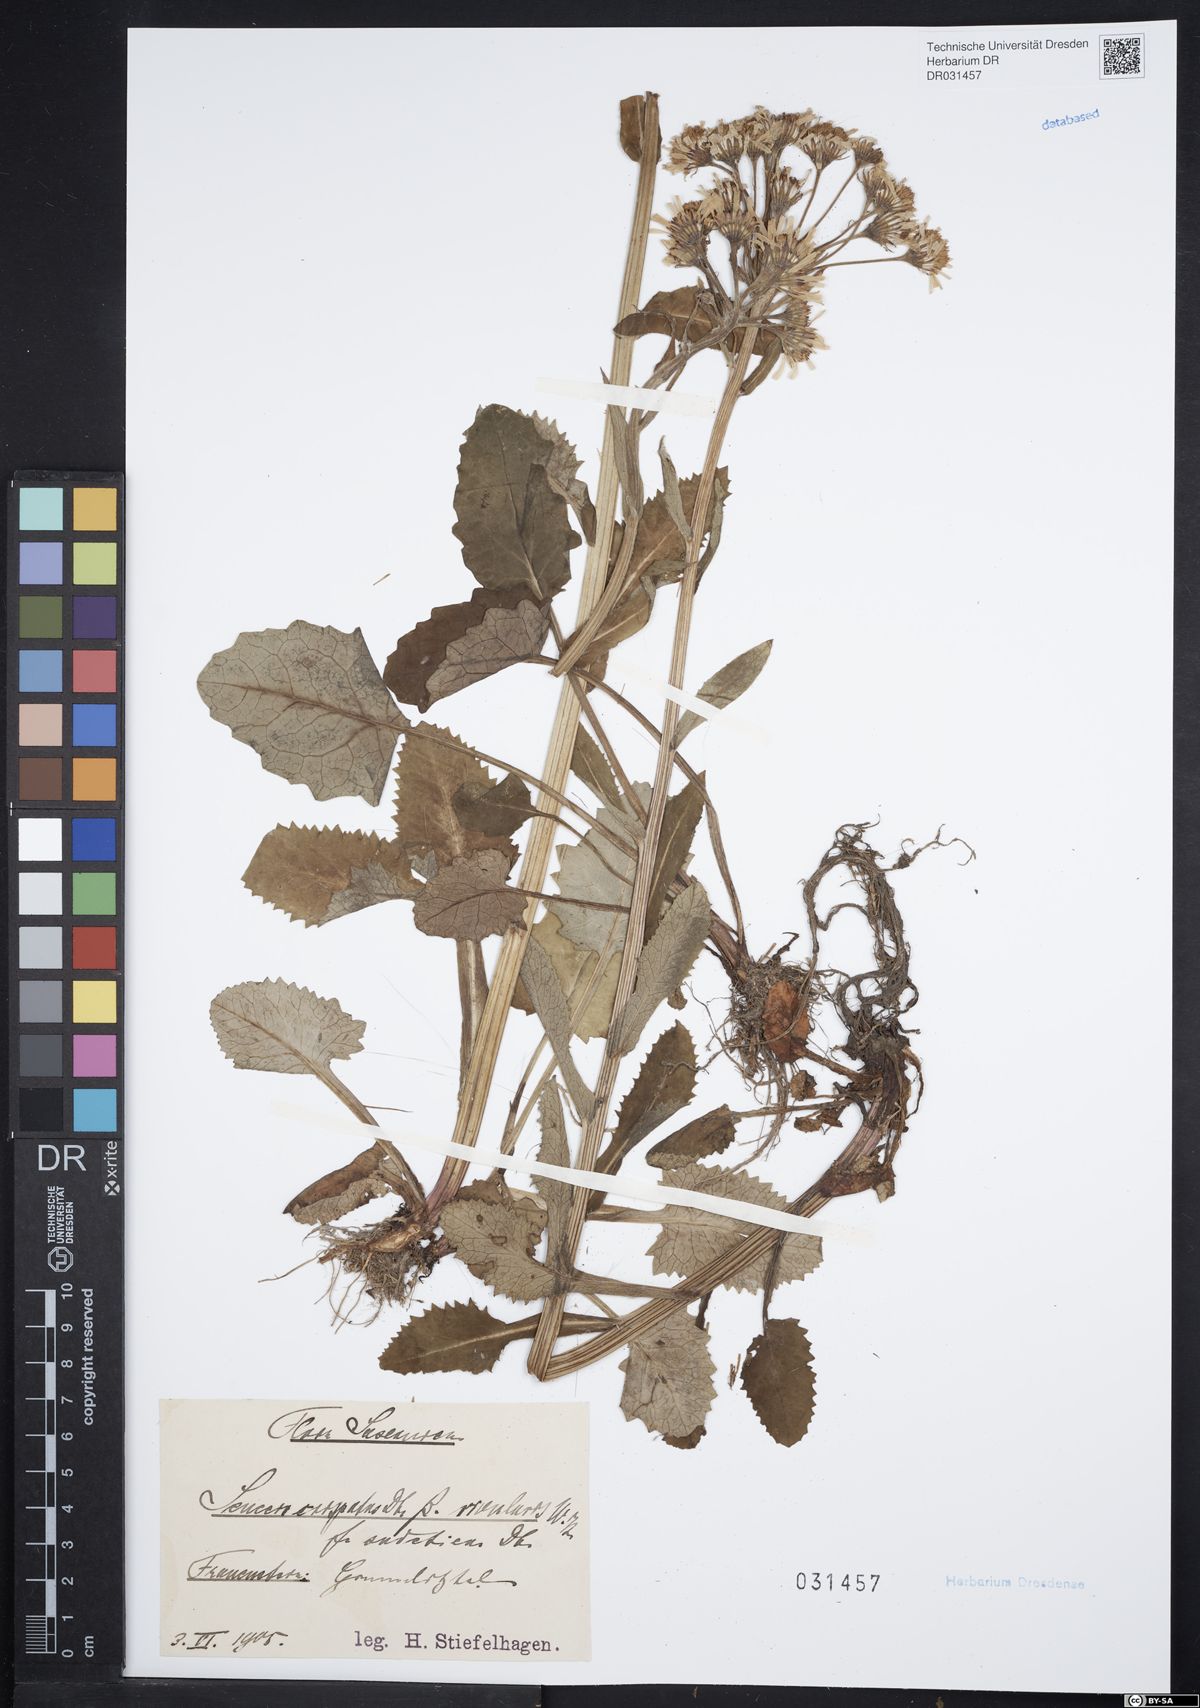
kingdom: Plantae
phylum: Tracheophyta
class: Magnoliopsida
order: Asterales
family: Asteraceae
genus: Tephroseris
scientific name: Tephroseris crispa
